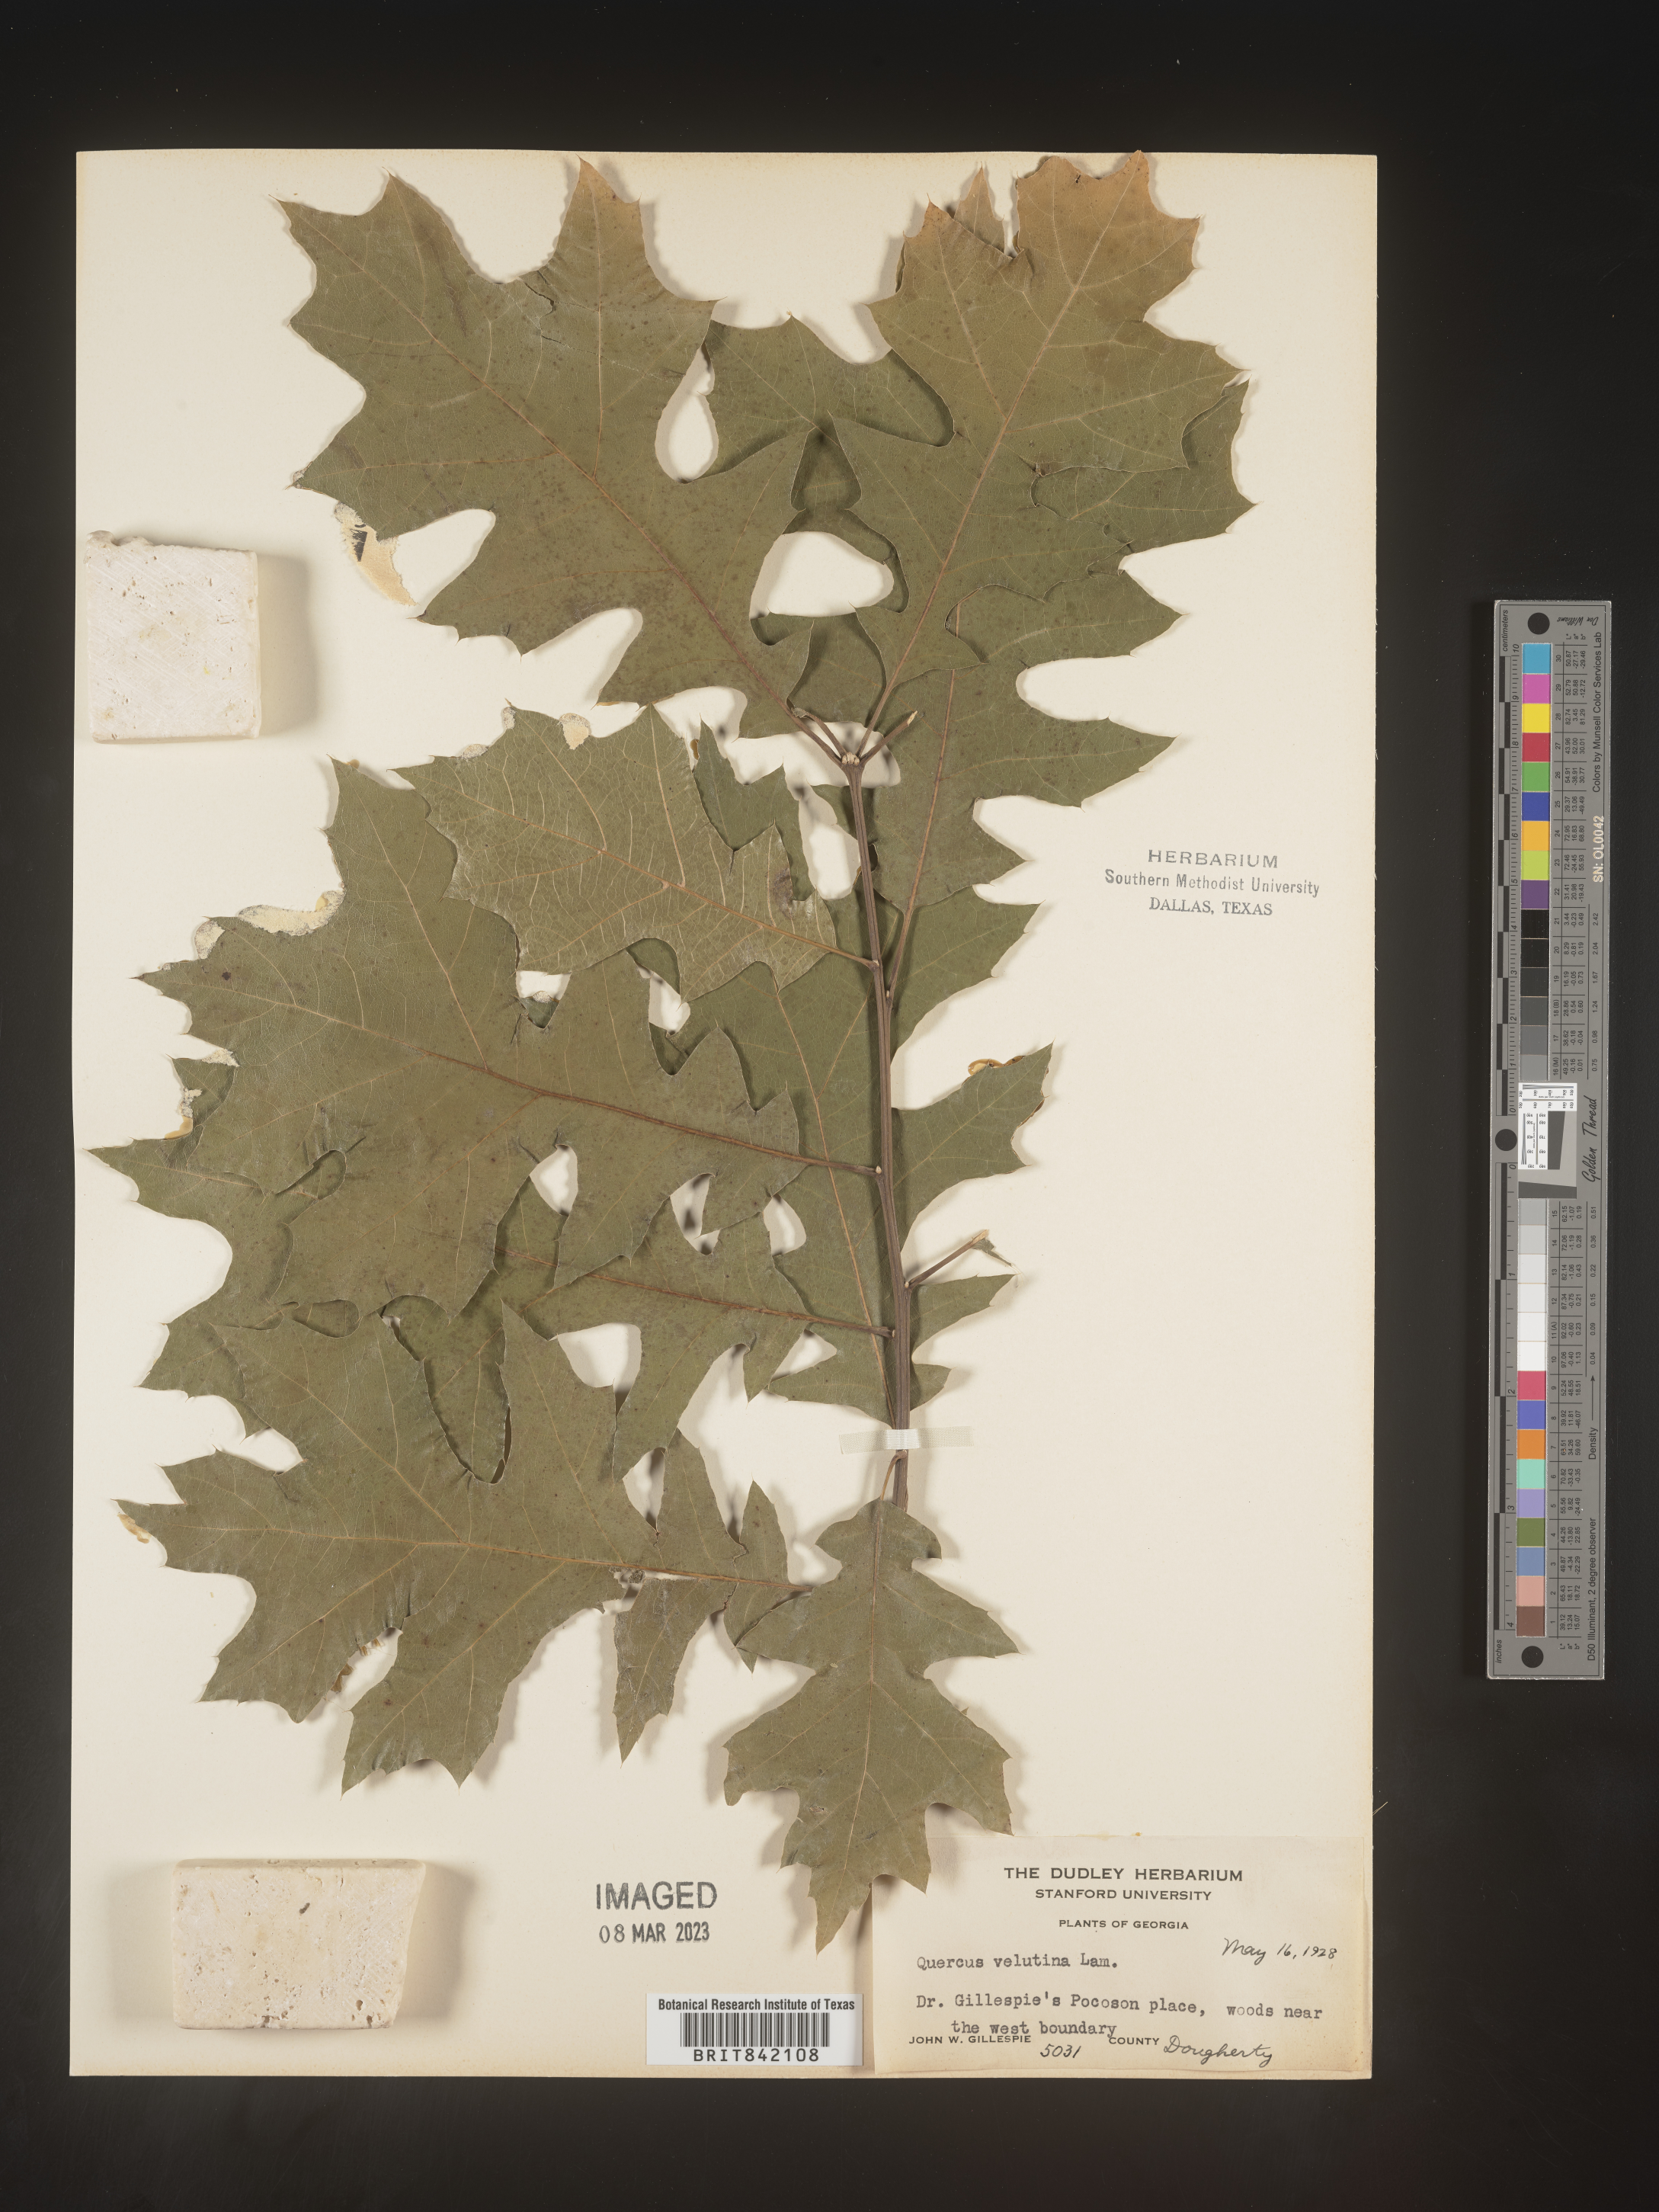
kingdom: Plantae
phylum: Tracheophyta
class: Magnoliopsida
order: Fagales
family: Fagaceae
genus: Quercus
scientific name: Quercus velutina
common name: Black oak
